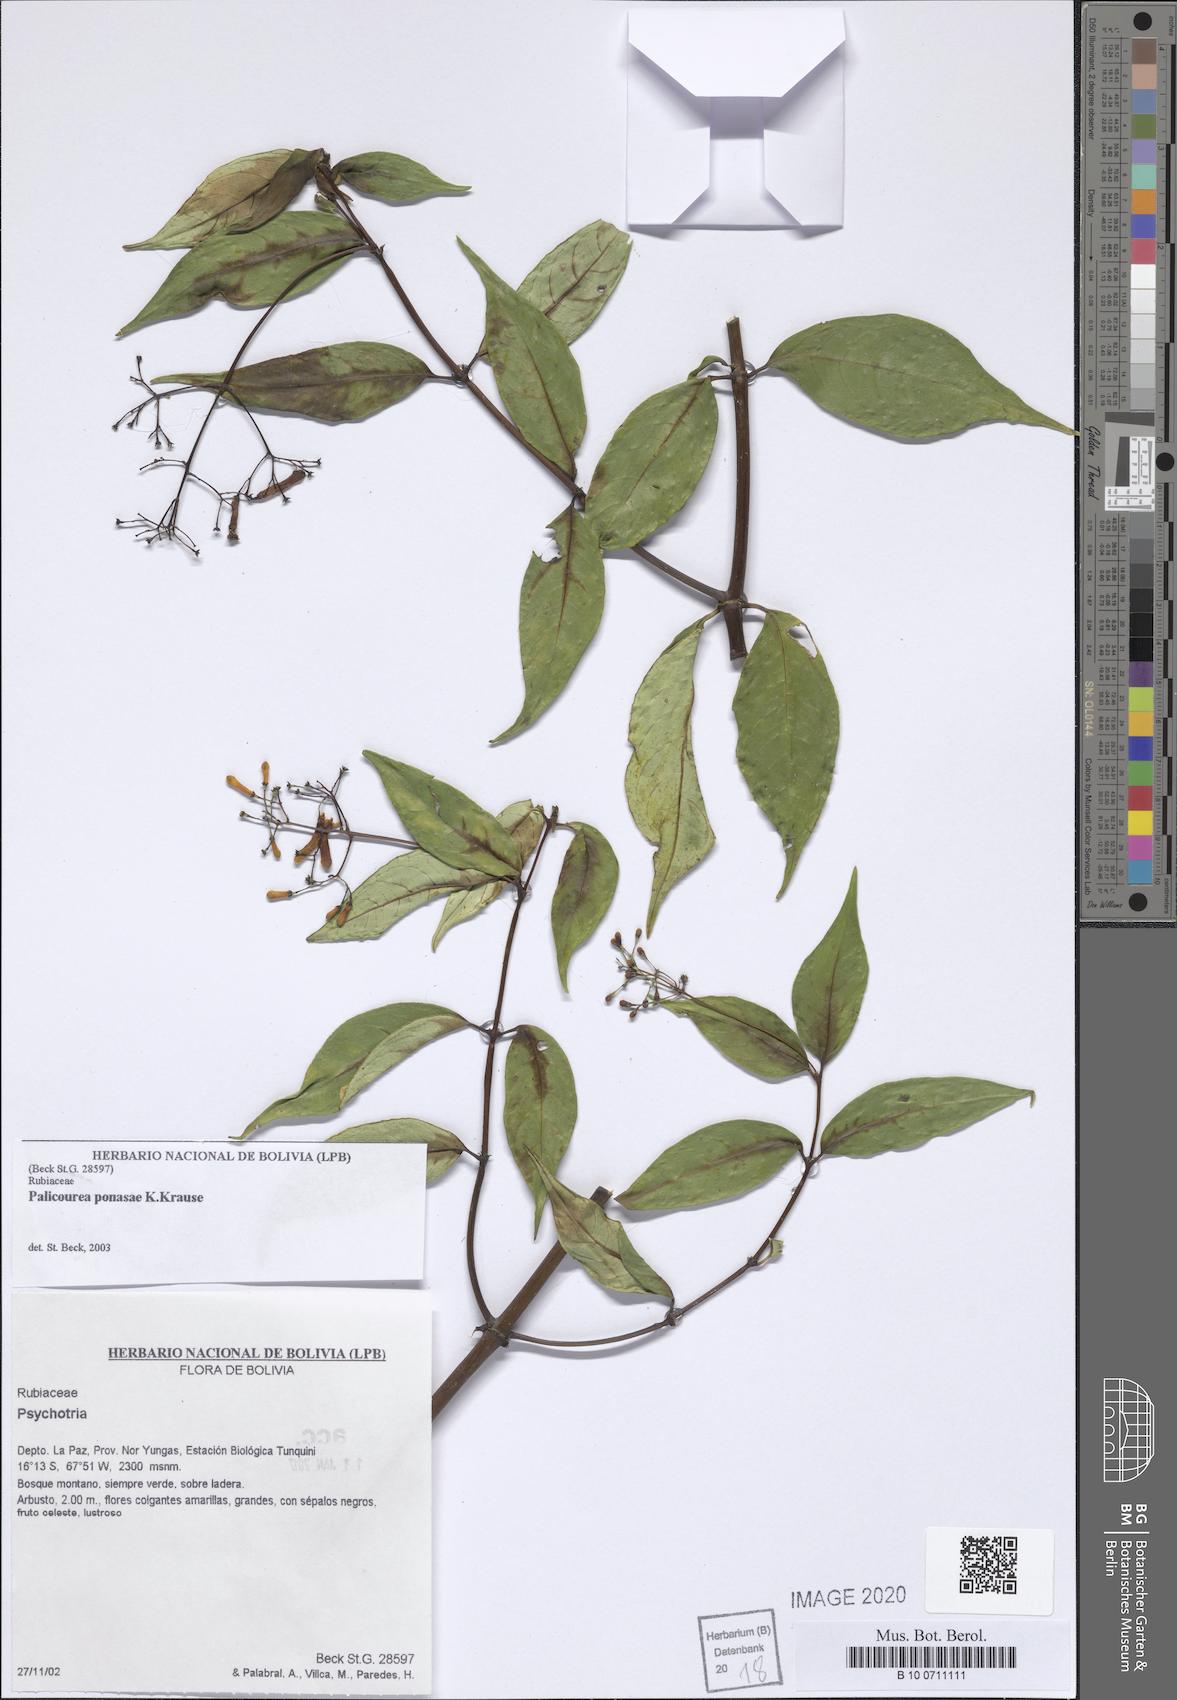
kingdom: Plantae
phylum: Tracheophyta
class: Magnoliopsida
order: Gentianales
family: Rubiaceae
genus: Palicourea
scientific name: Palicourea ponasae
